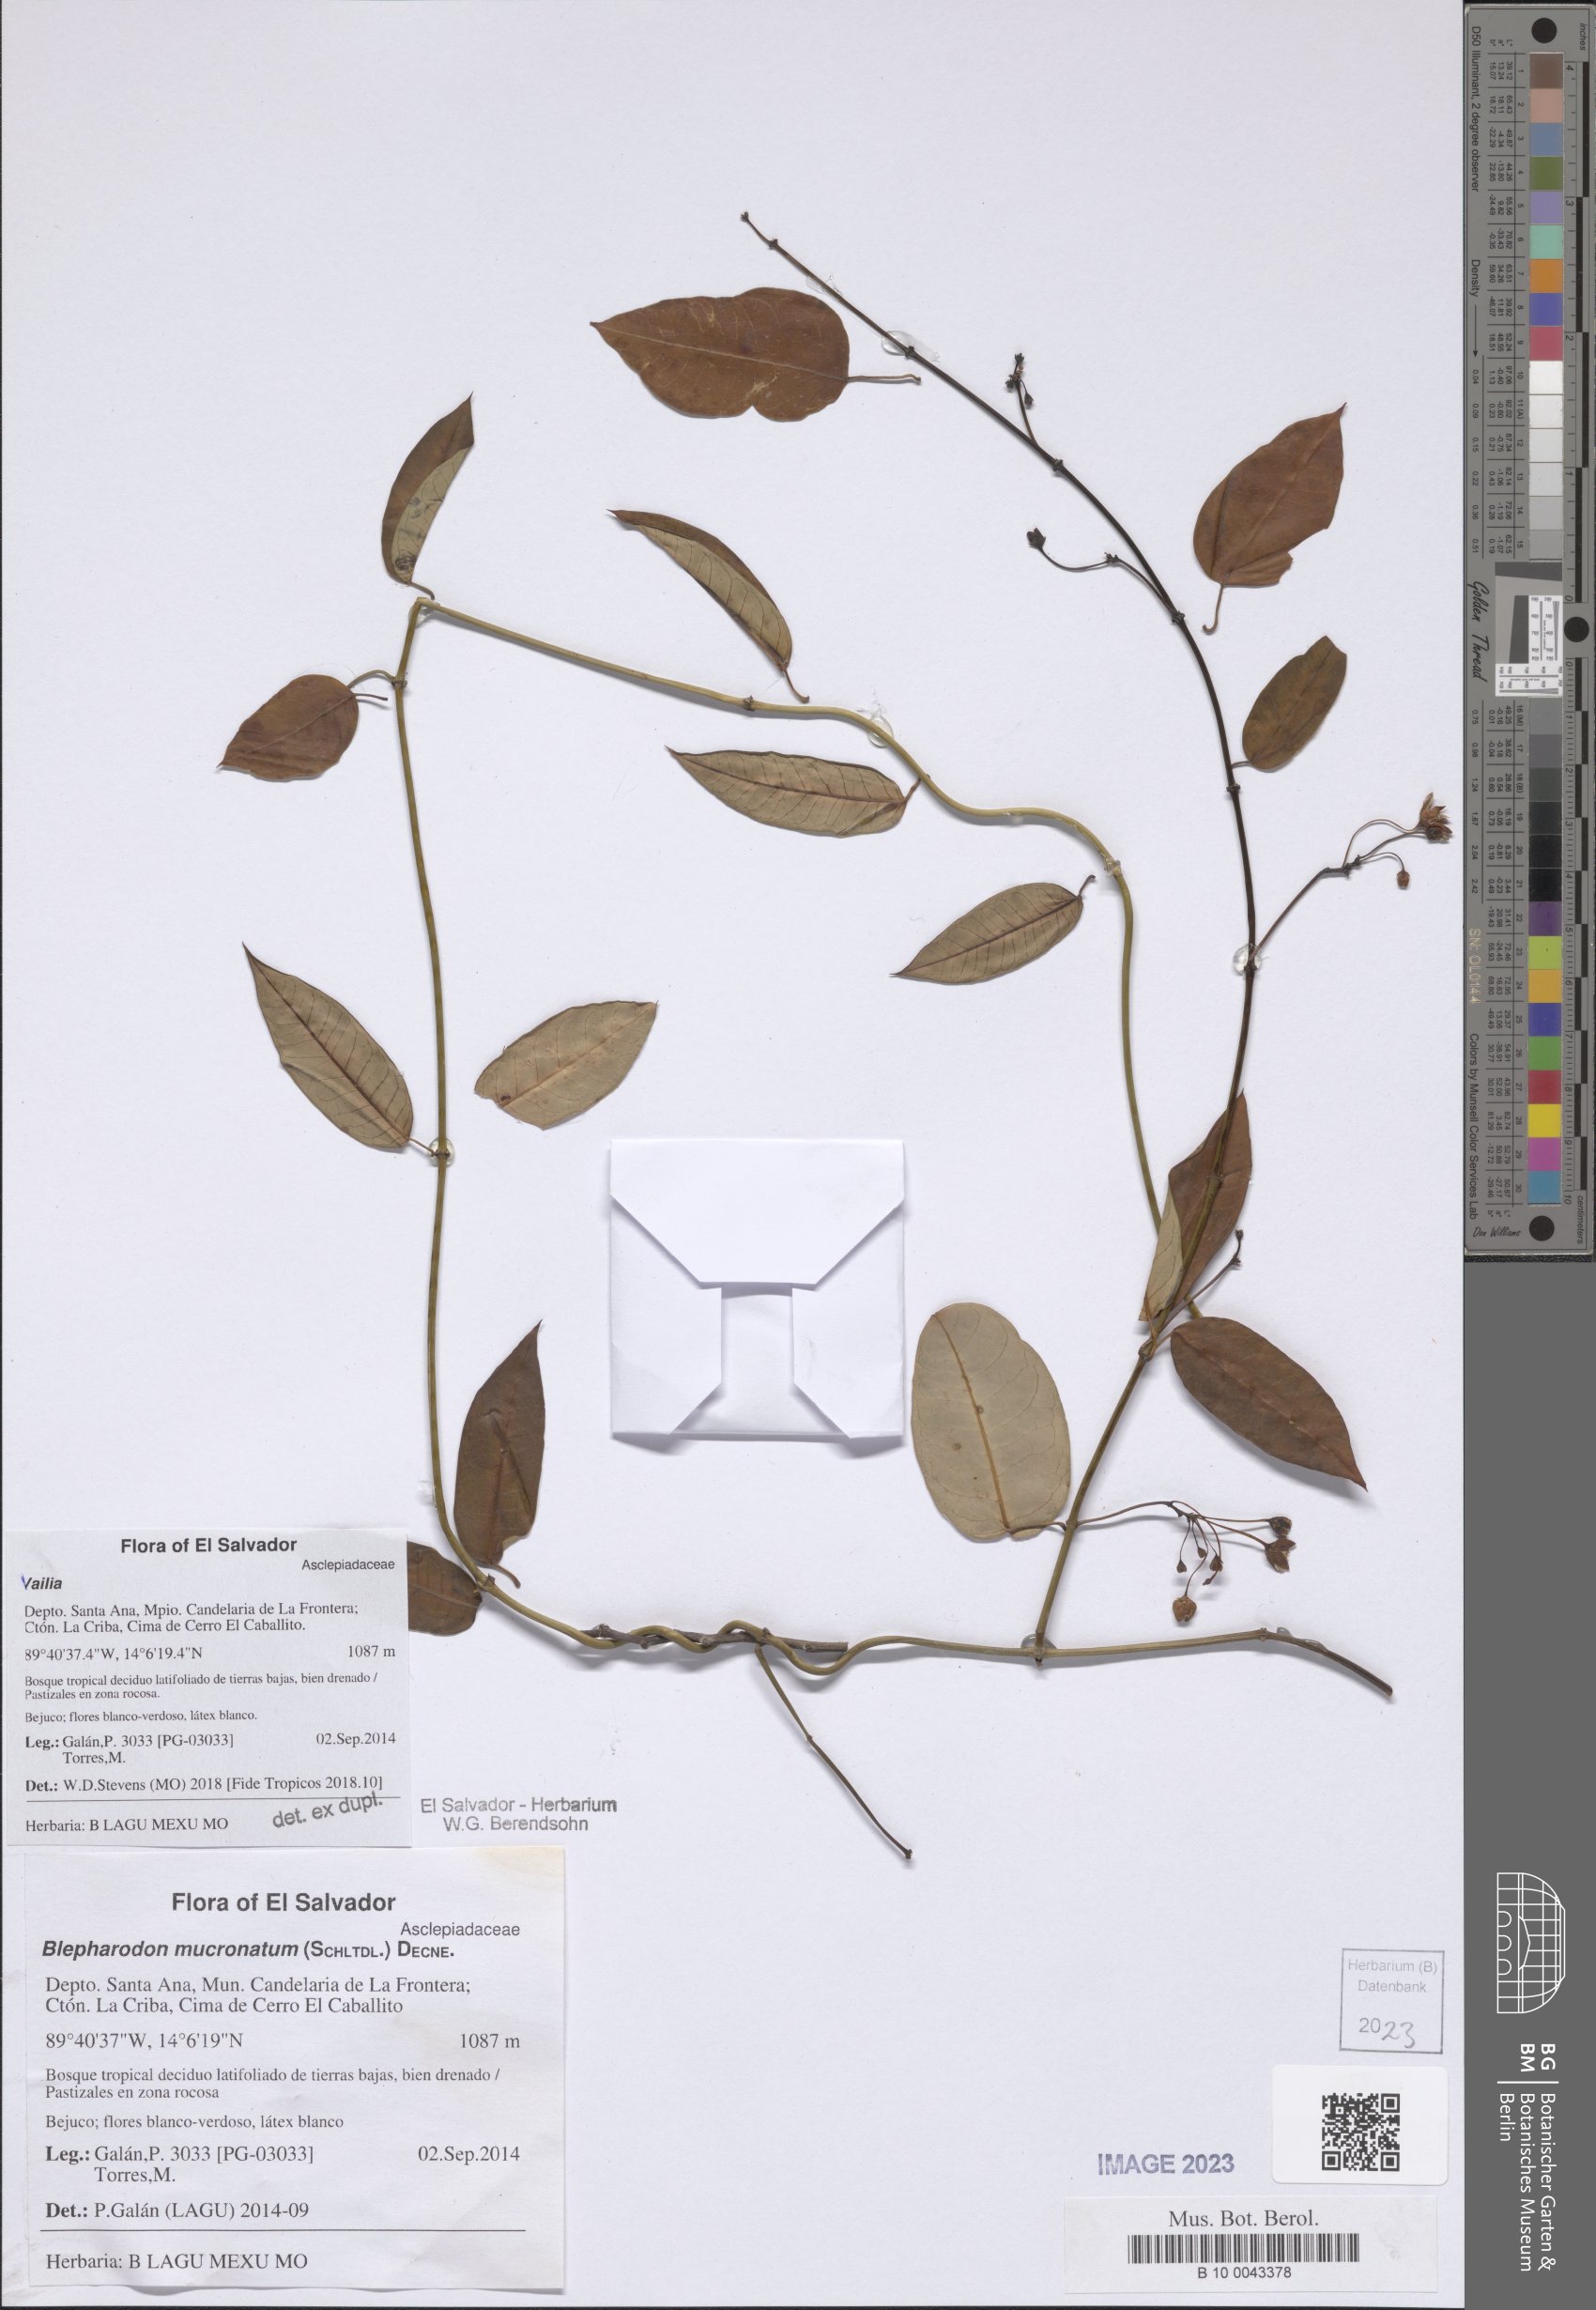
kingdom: Plantae
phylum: Tracheophyta
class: Magnoliopsida
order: Gentianales
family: Apocynaceae
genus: Vailia
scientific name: Vailia
